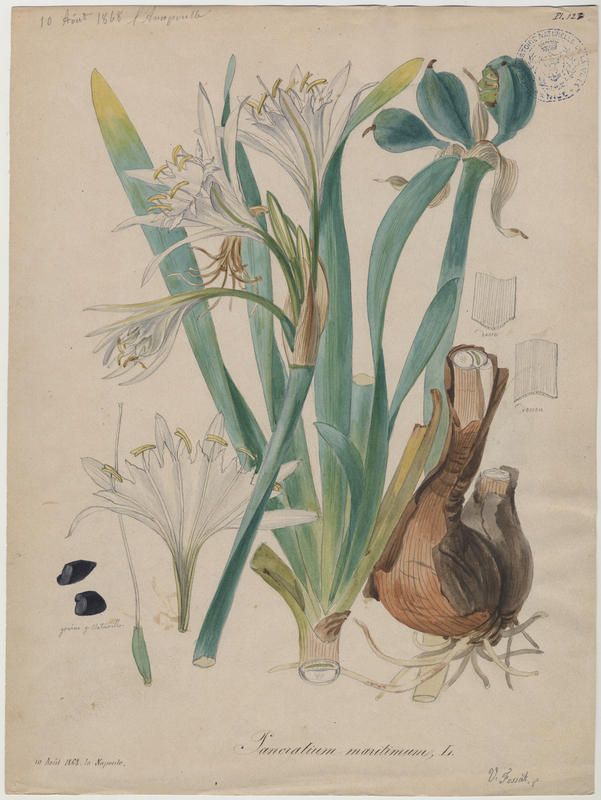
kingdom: Plantae
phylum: Tracheophyta
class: Liliopsida
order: Asparagales
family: Amaryllidaceae
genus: Pancratium
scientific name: Pancratium maritimum
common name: Sea-daffodil
